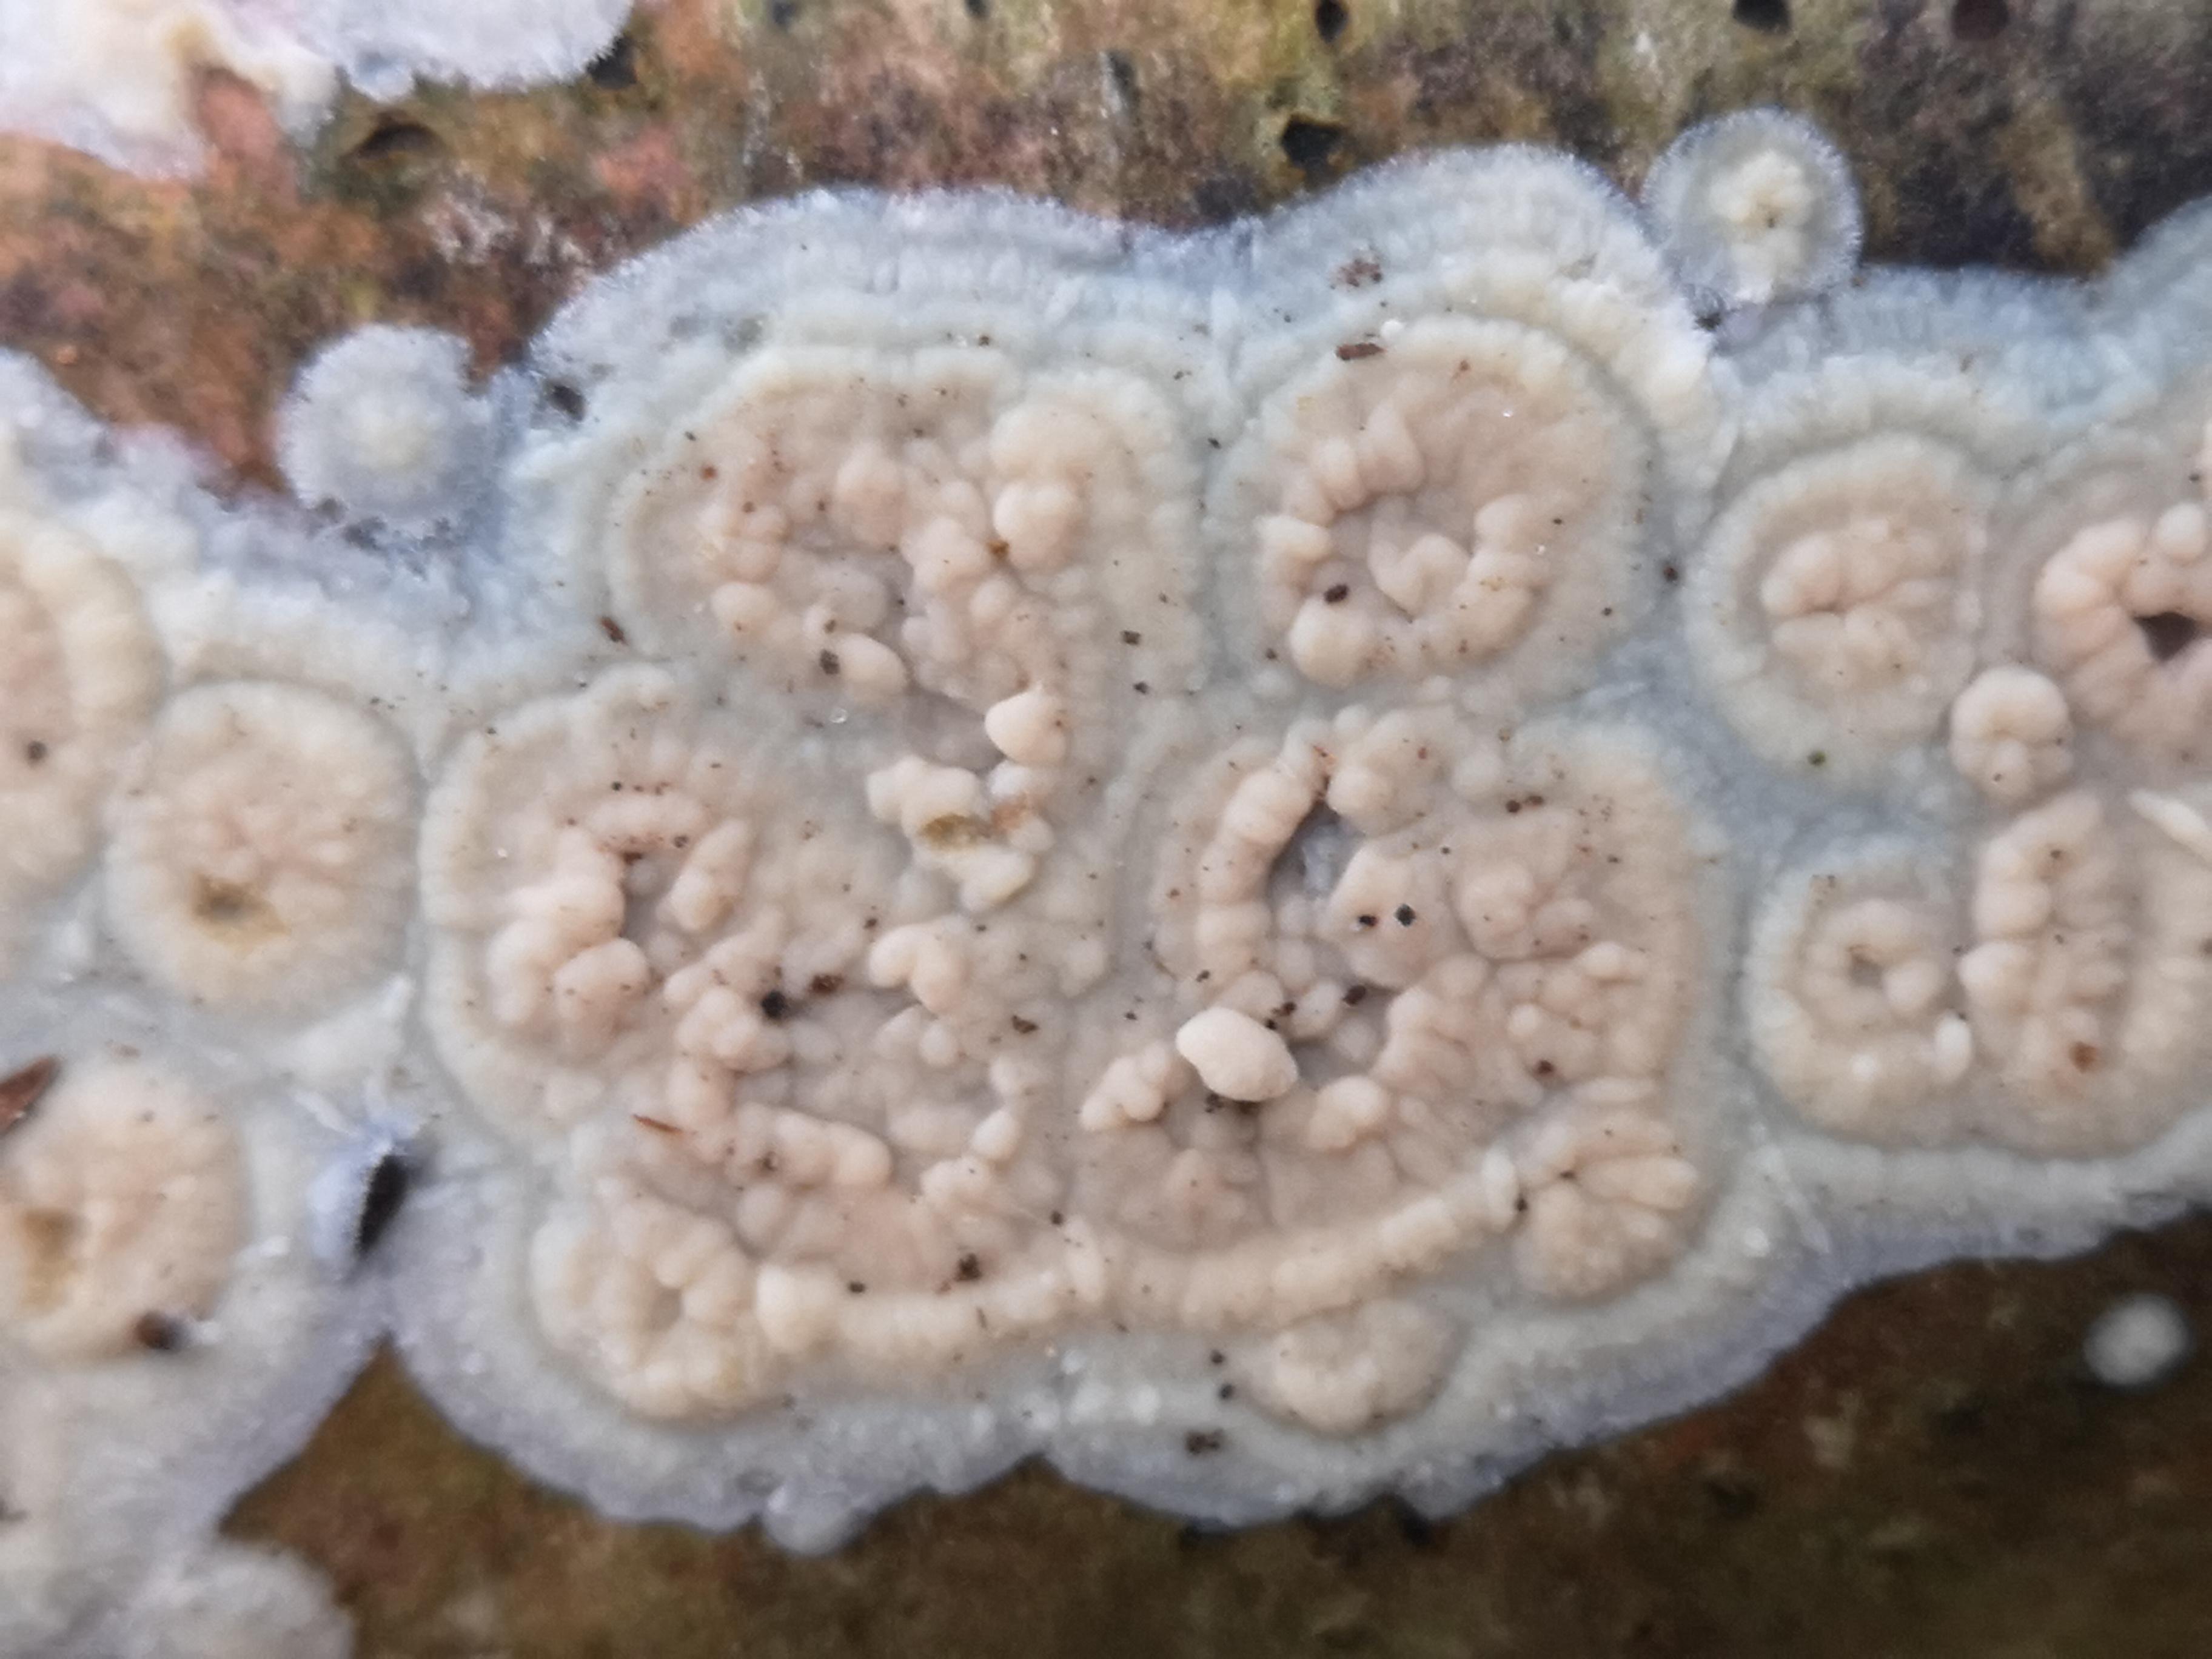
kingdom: Fungi
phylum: Basidiomycota
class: Agaricomycetes
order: Agaricales
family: Physalacriaceae
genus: Cylindrobasidium
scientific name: Cylindrobasidium evolvens
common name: sprækkehinde
